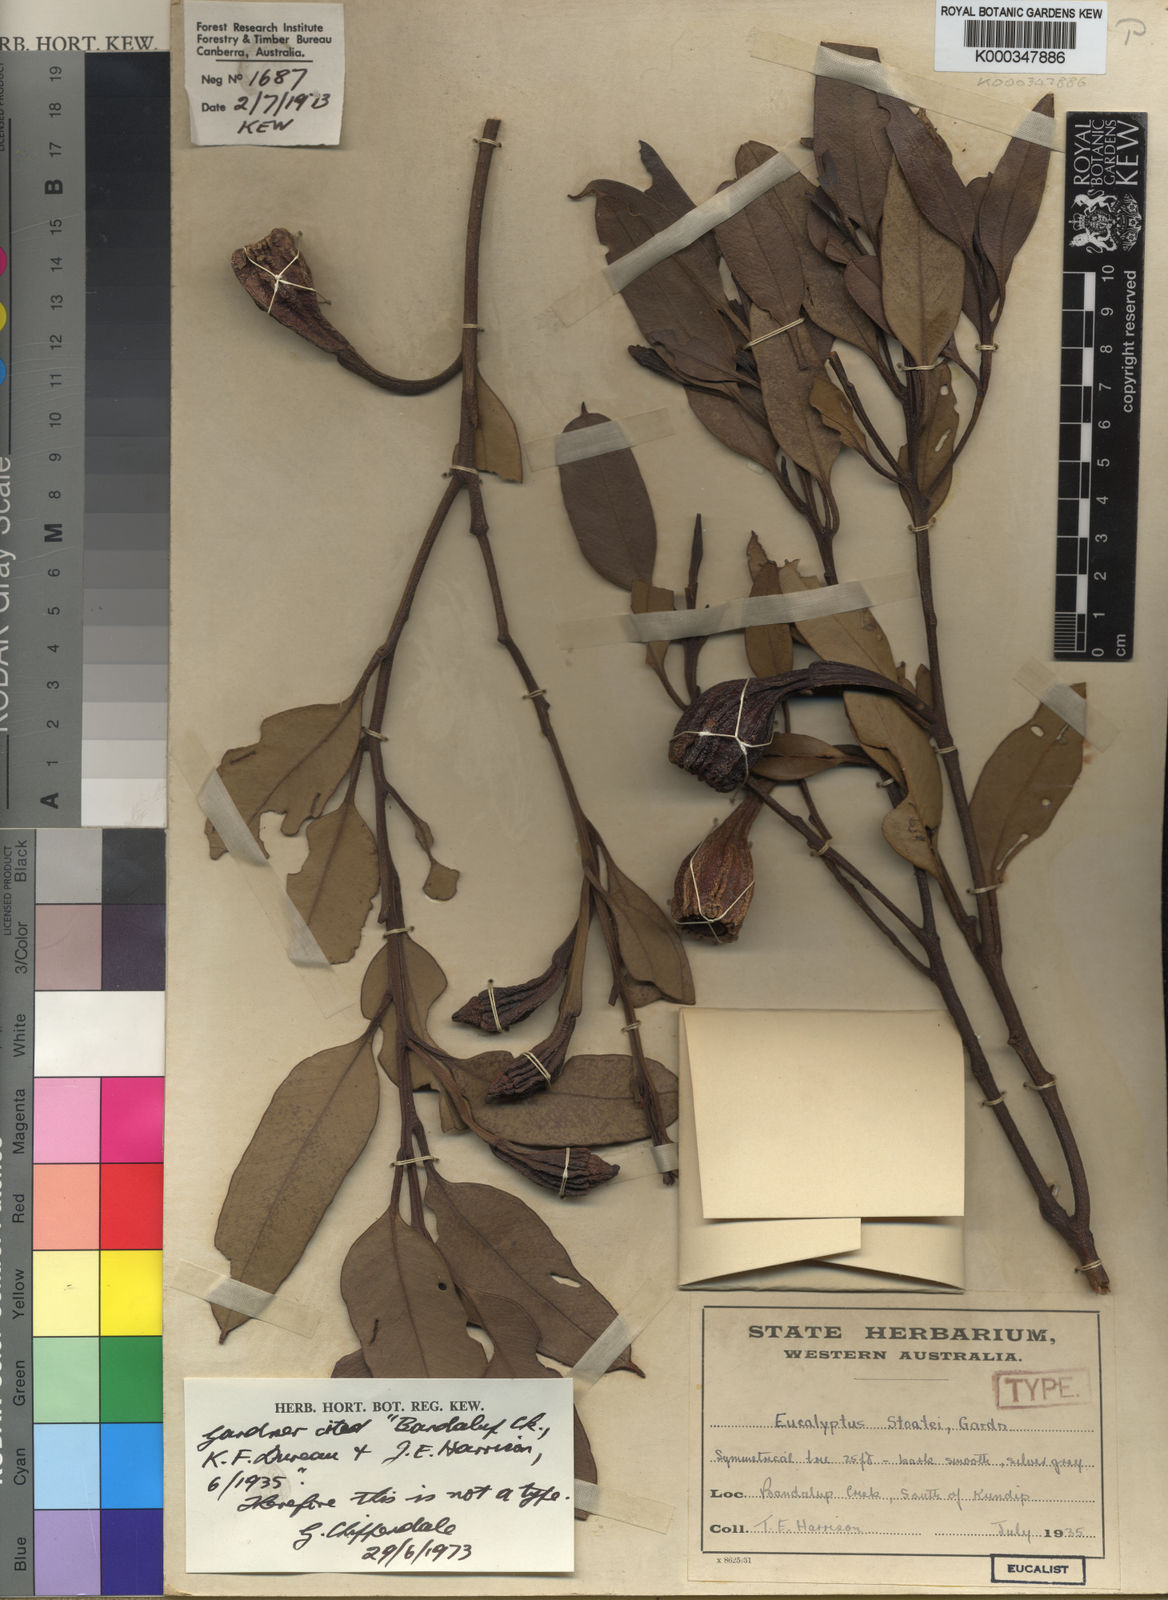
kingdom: Plantae
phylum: Tracheophyta
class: Magnoliopsida
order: Myrtales
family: Myrtaceae
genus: Eucalyptus
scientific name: Eucalyptus stoatei
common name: Scarlet pear gum
